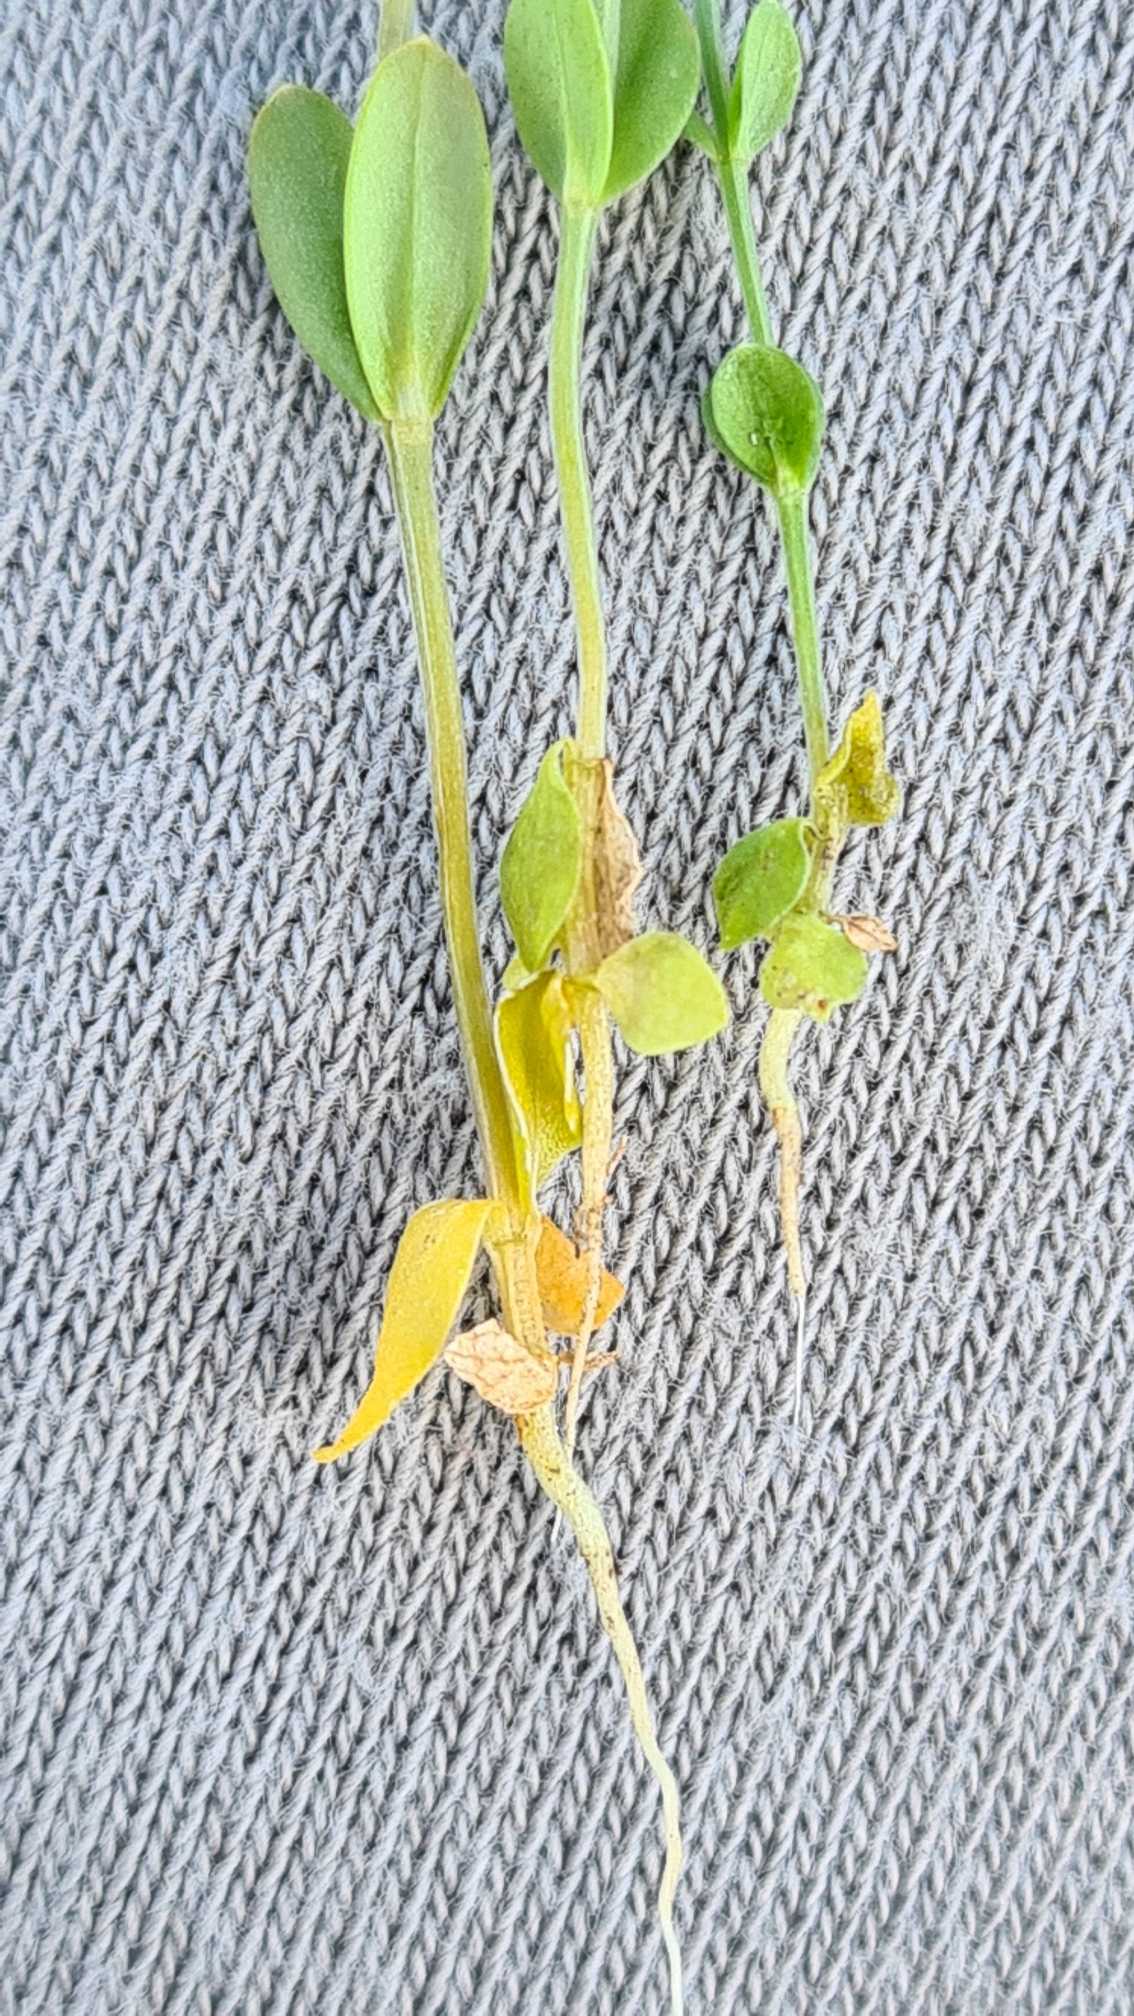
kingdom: Plantae
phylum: Tracheophyta
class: Magnoliopsida
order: Gentianales
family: Gentianaceae
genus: Centaurium
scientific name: Centaurium pulchellum
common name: Liden tusindgylden
